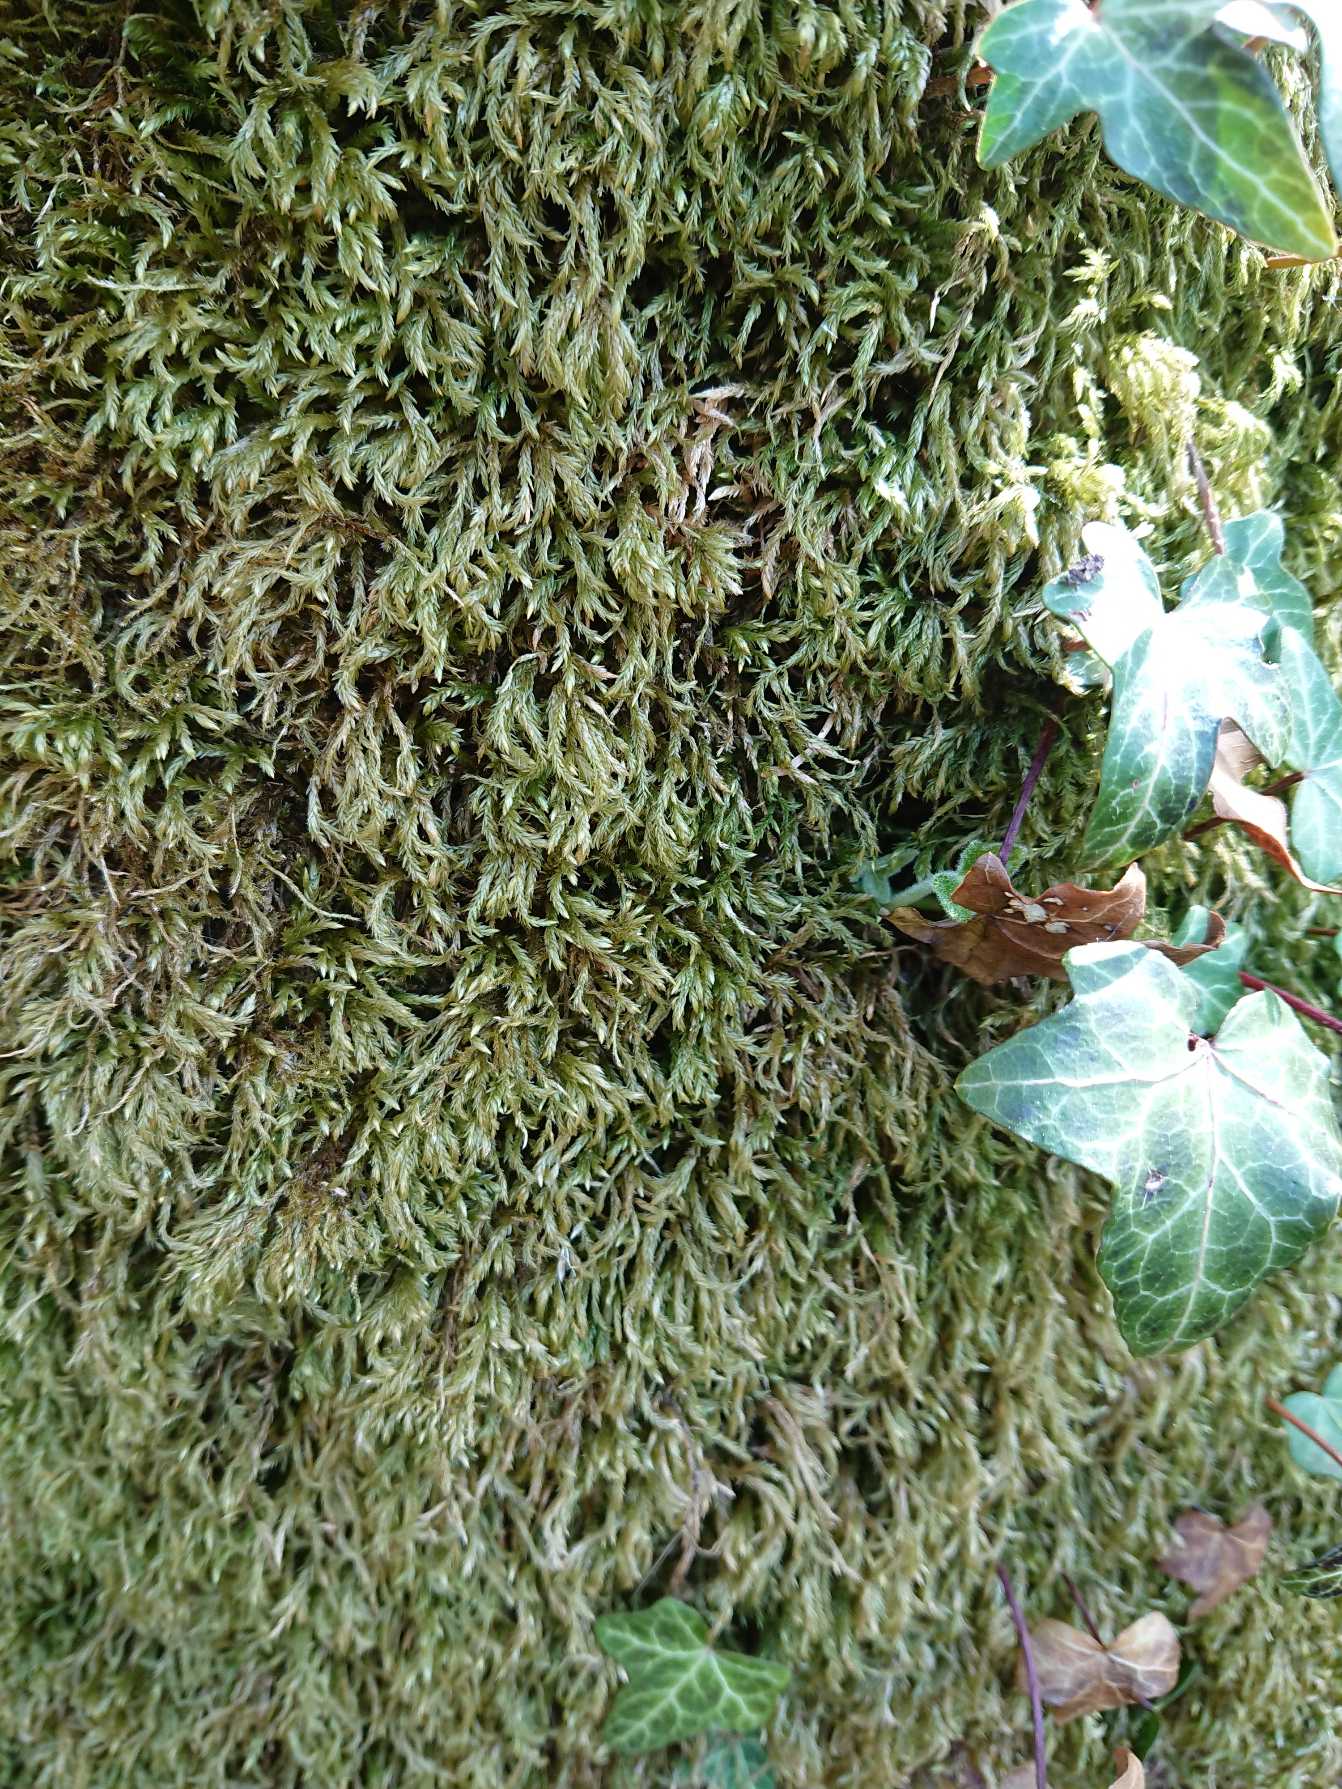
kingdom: Plantae
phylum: Bryophyta
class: Bryopsida
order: Hypnales
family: Lembophyllaceae
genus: Isothecium
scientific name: Isothecium alopecuroides
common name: Stor stammemos
